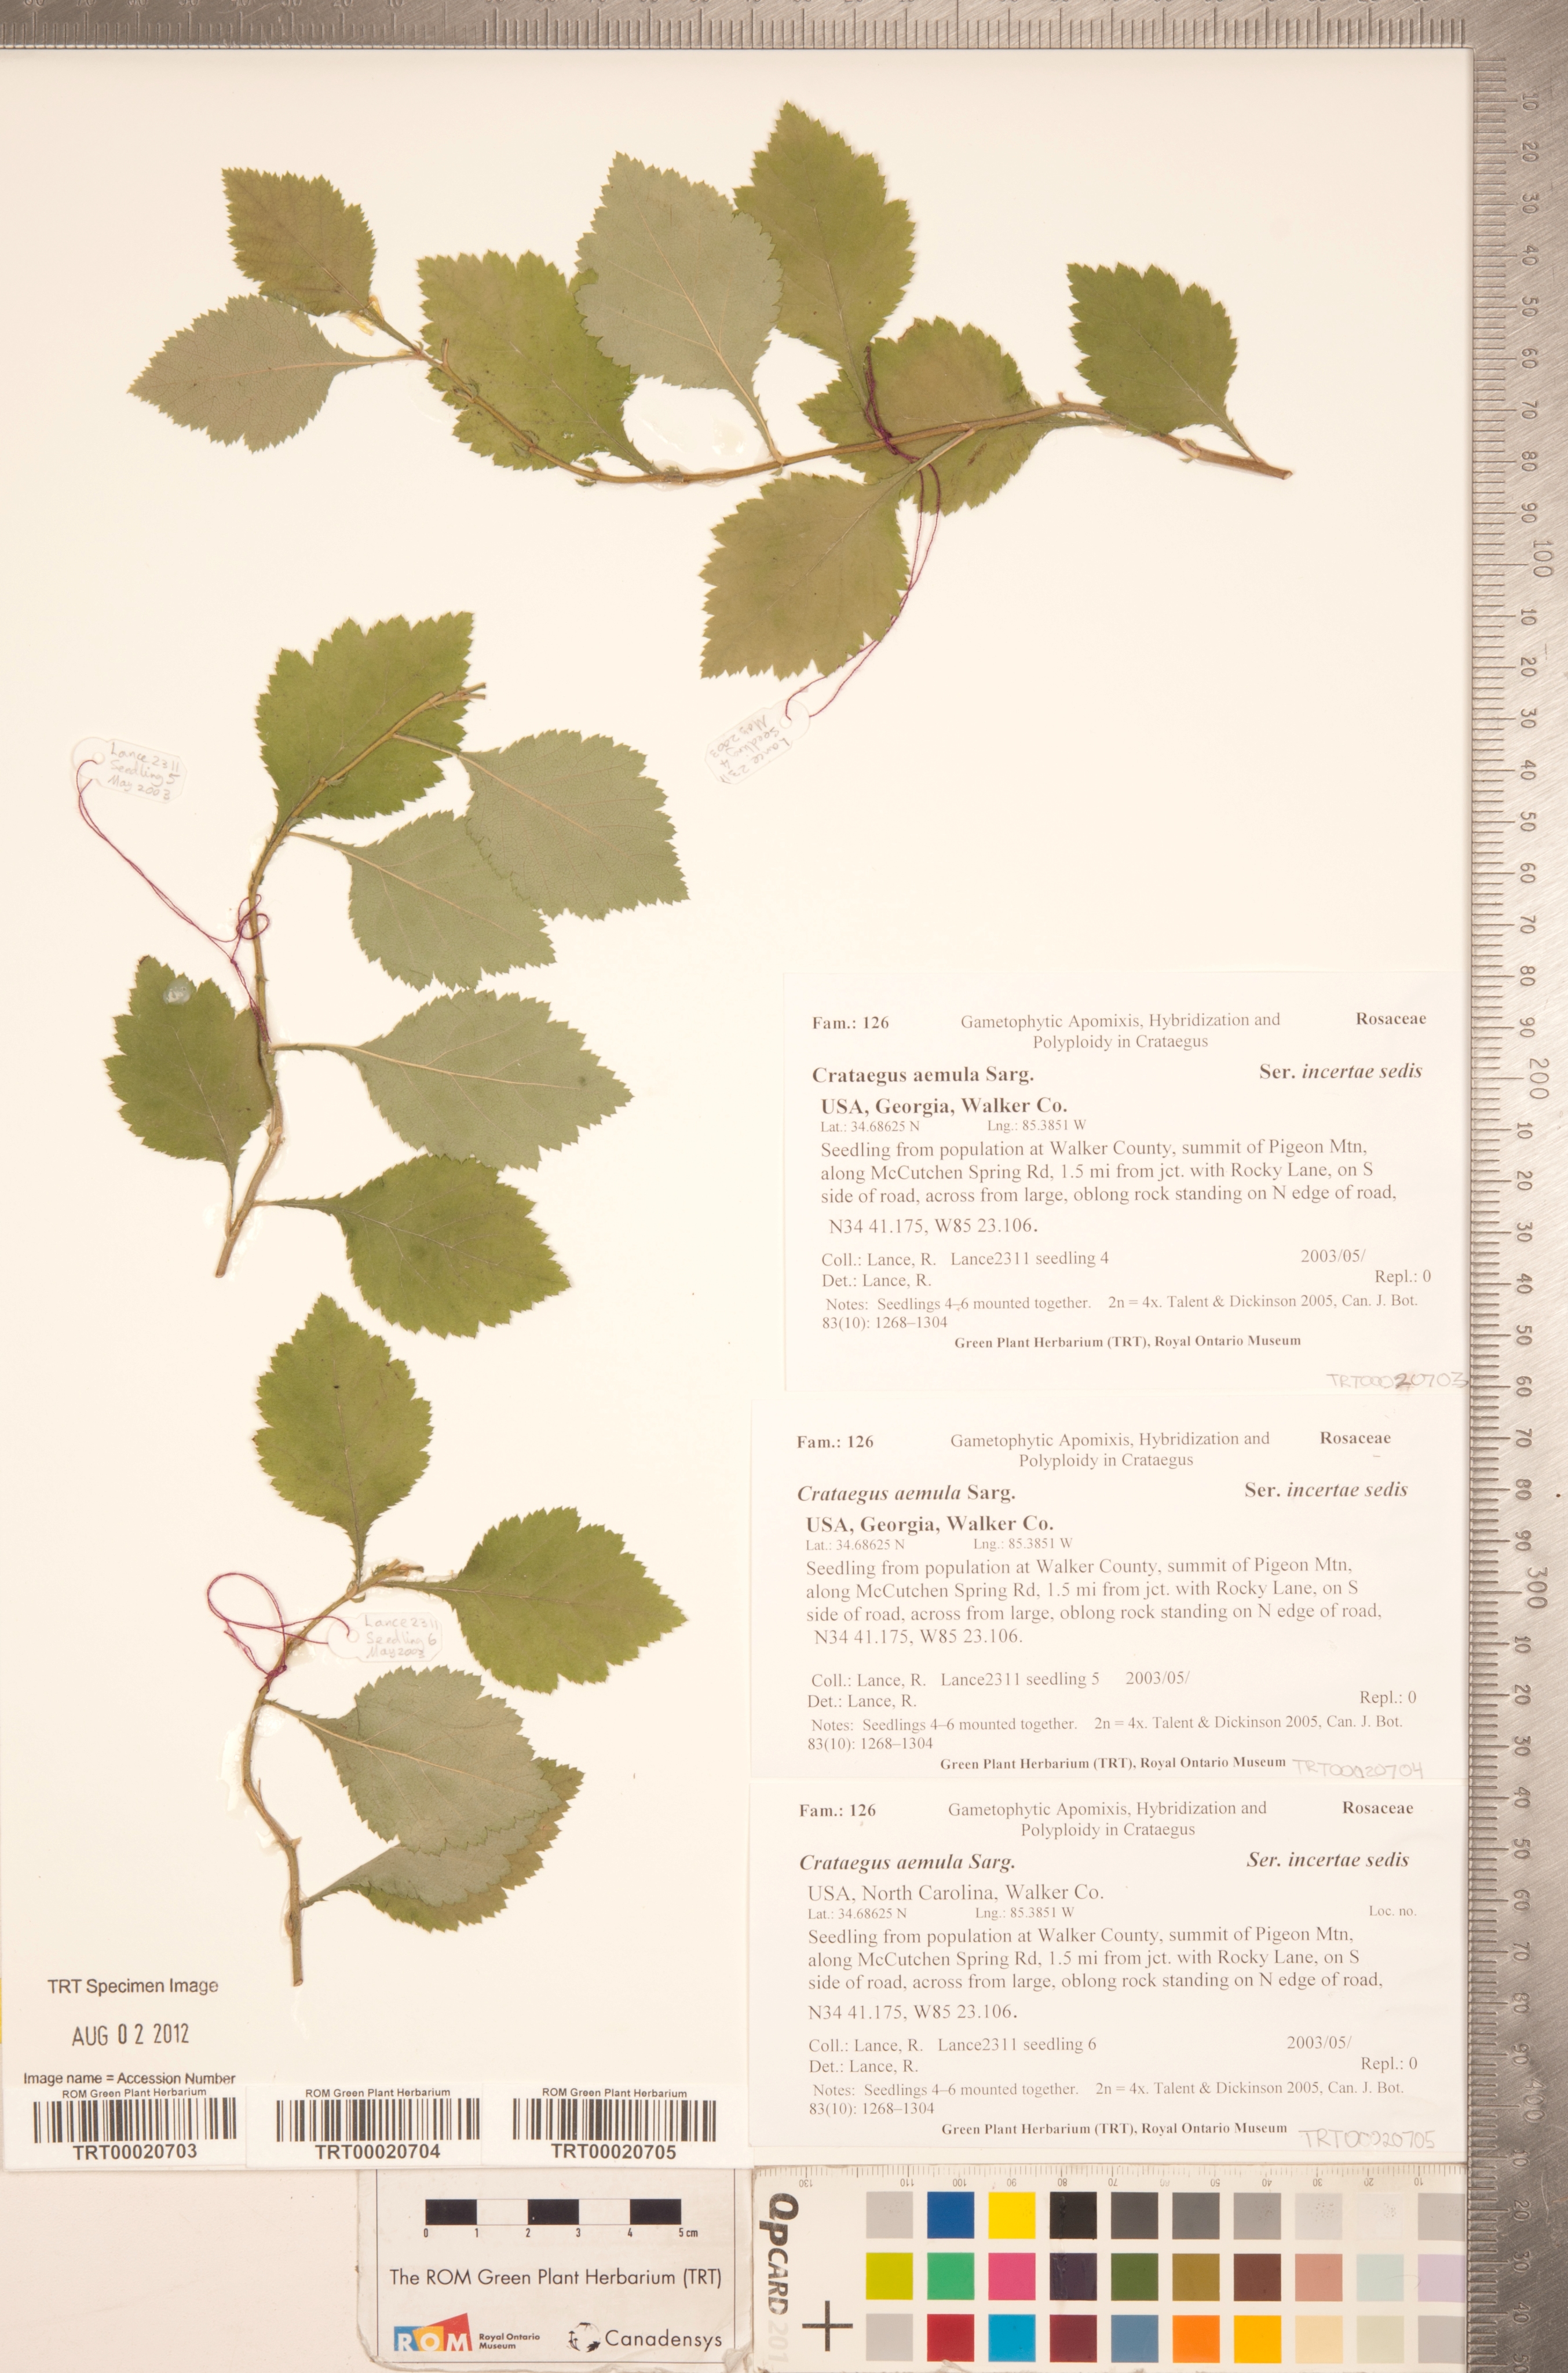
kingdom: Plantae
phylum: Tracheophyta
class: Magnoliopsida
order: Rosales
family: Rosaceae
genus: Crataegus
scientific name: Crataegus iracunda
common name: Stolon-bearing hawthorn
